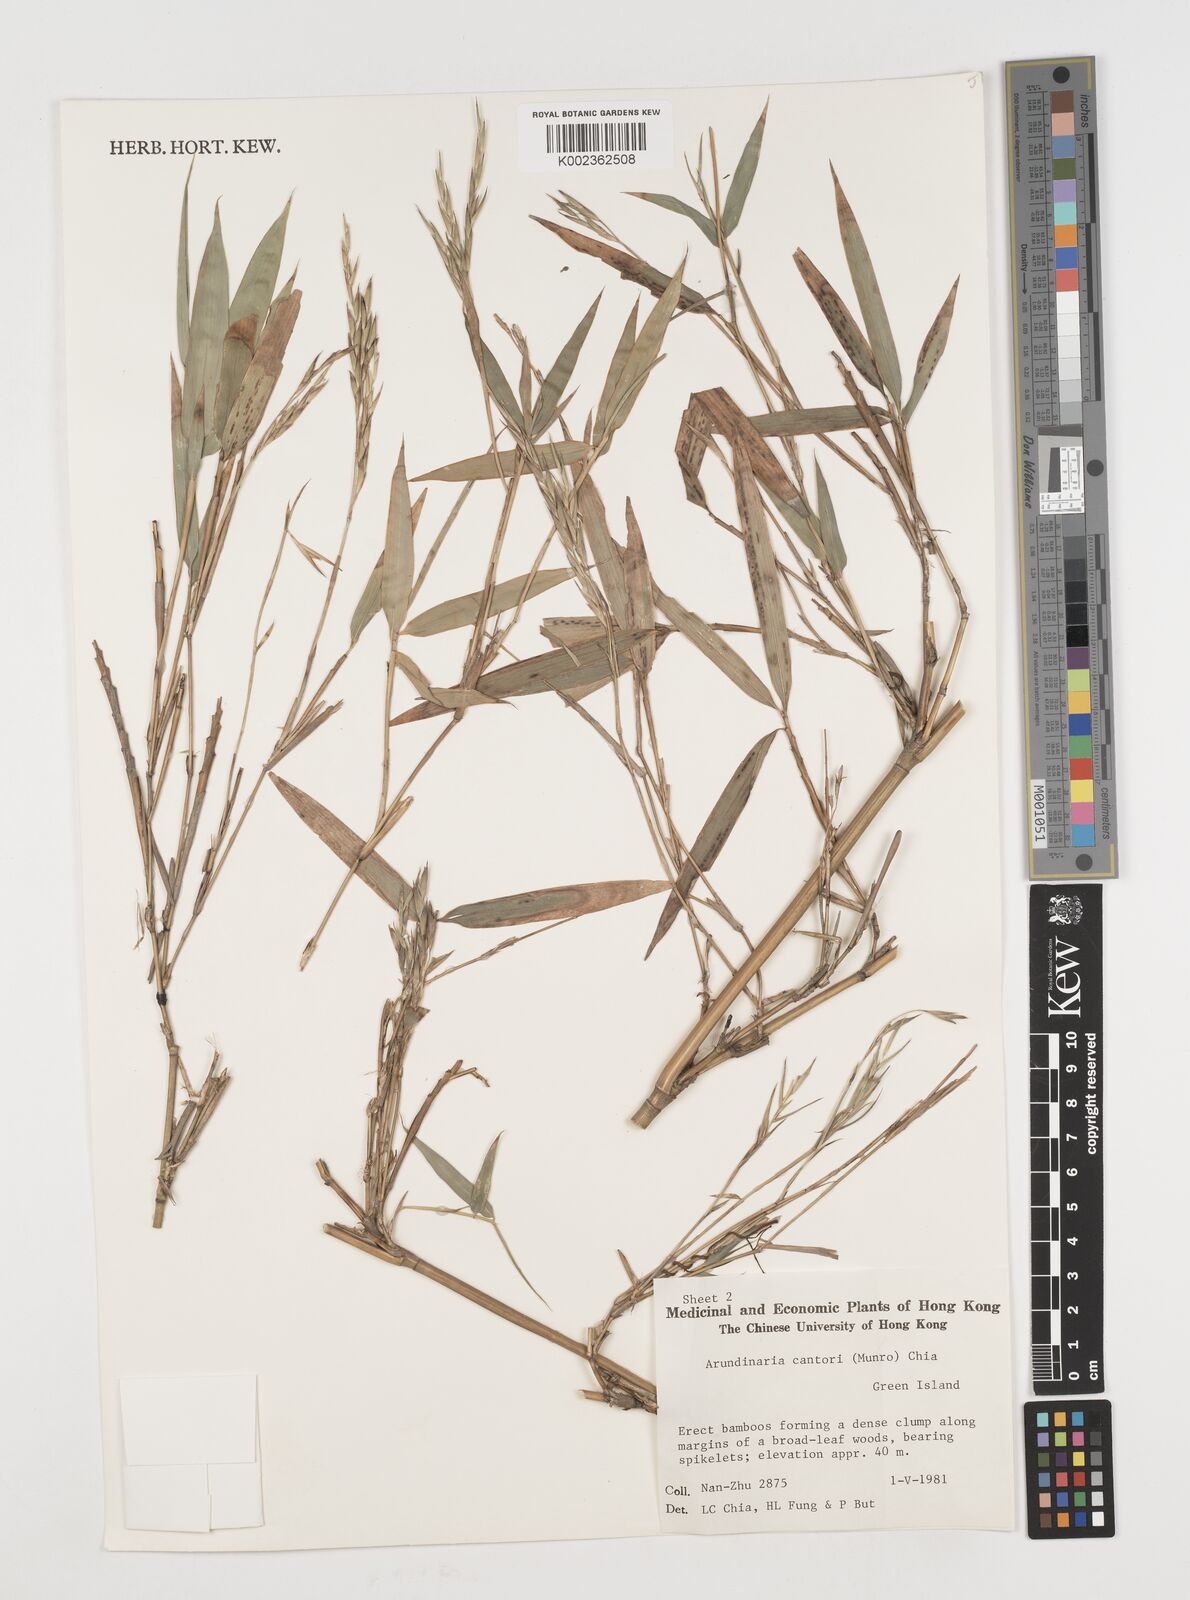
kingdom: Plantae
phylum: Tracheophyta
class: Liliopsida
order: Poales
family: Poaceae
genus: Pseudosasa
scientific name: Pseudosasa cantorii
